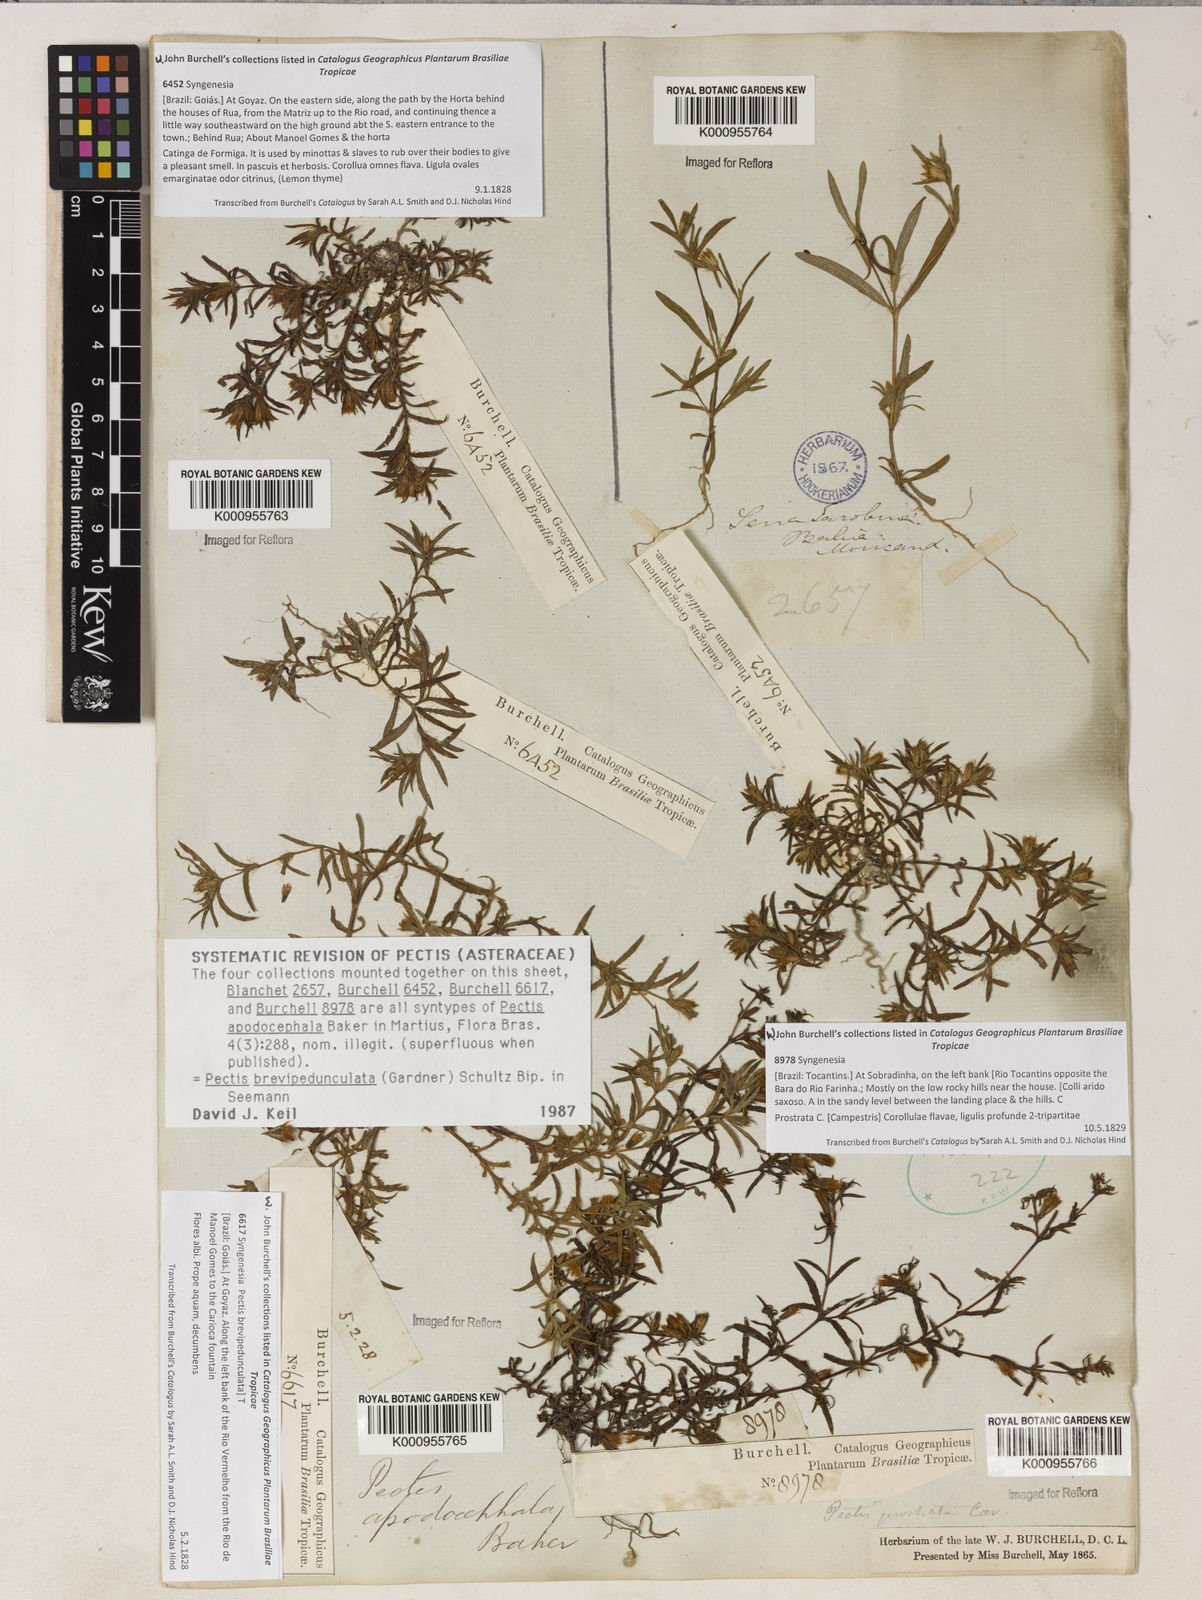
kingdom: Plantae
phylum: Tracheophyta
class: Magnoliopsida
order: Asterales
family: Asteraceae
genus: Pectis
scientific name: Pectis brevipedunculata
